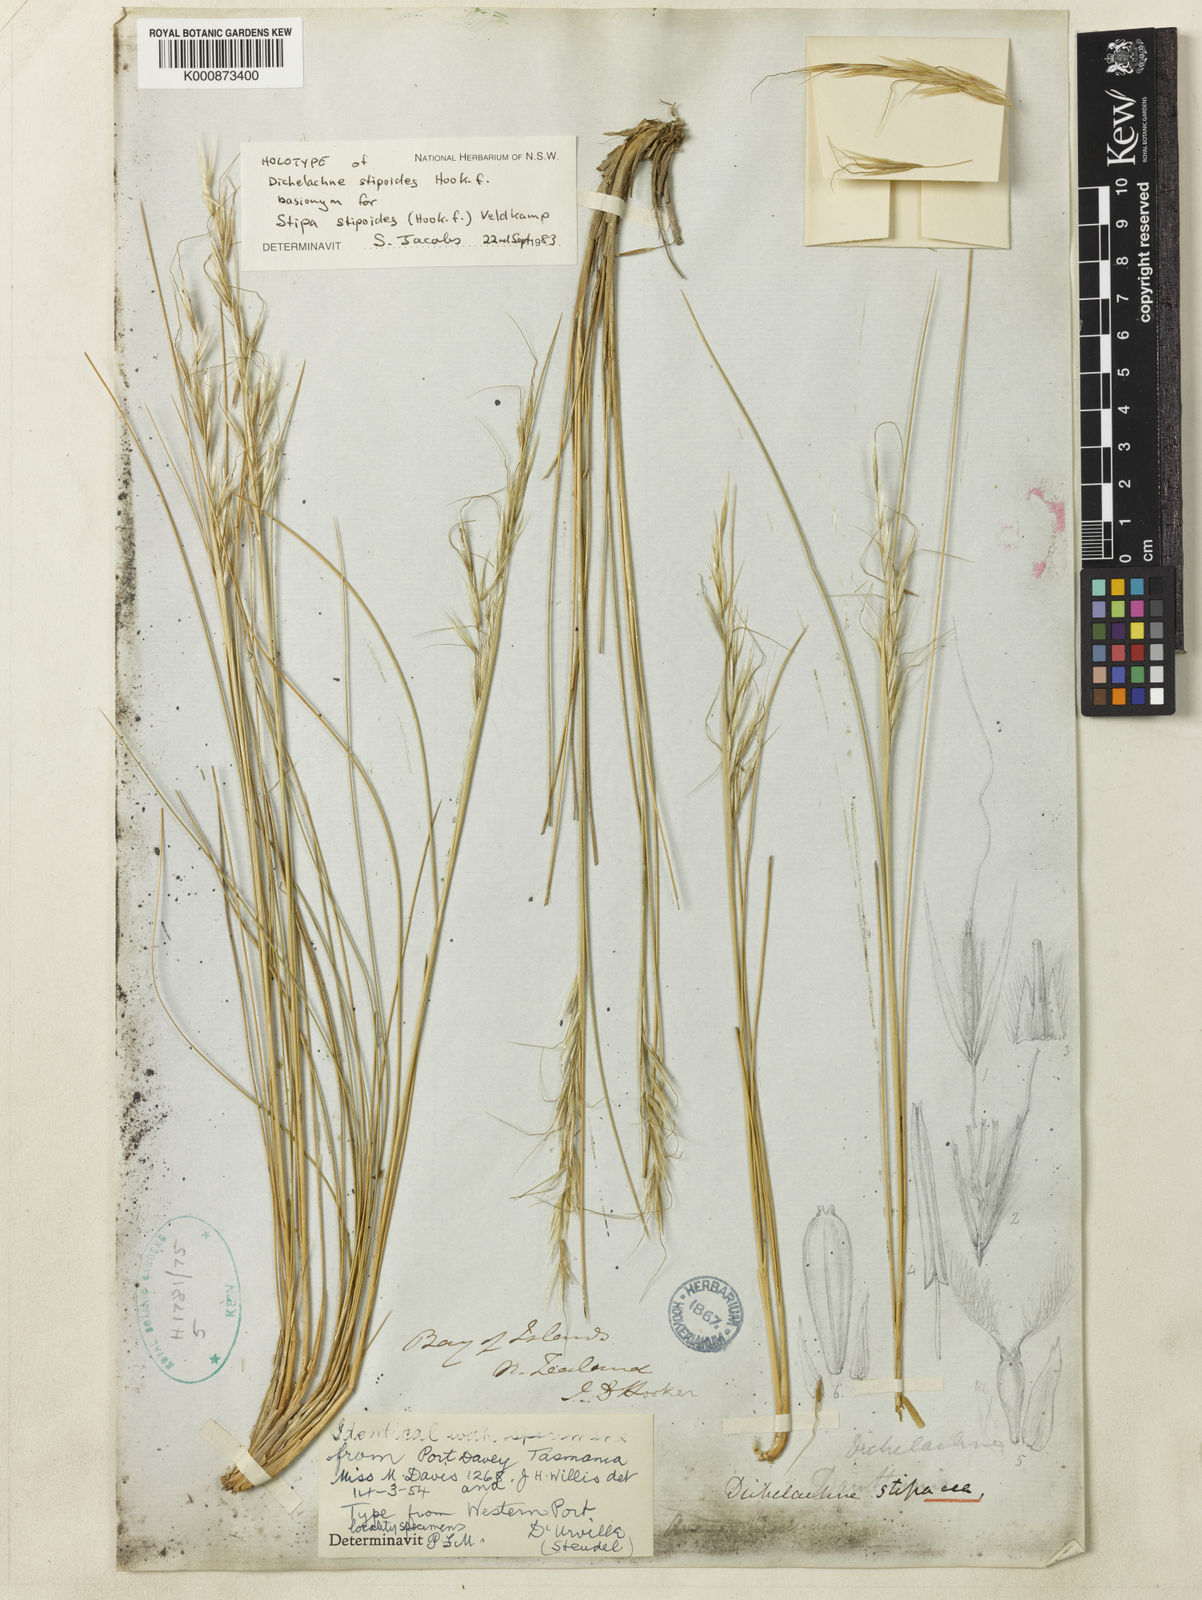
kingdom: Plantae
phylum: Tracheophyta
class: Liliopsida
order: Poales
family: Poaceae
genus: Austrostipa
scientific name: Austrostipa stipoides
